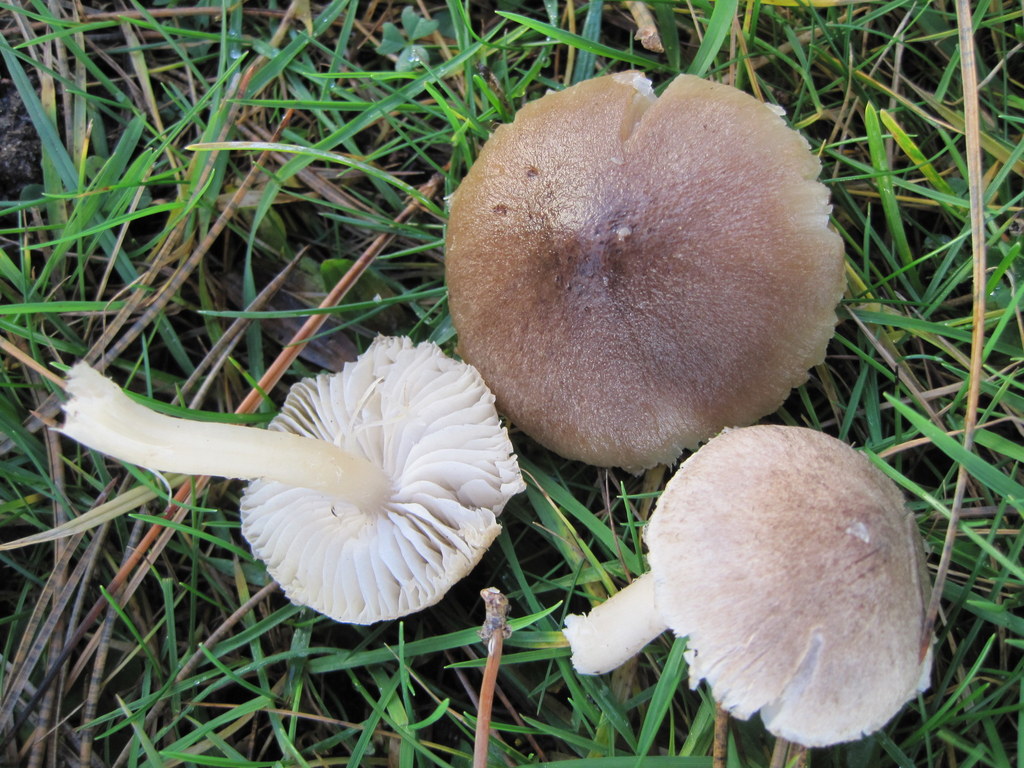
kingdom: Fungi
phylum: Basidiomycota
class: Agaricomycetes
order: Agaricales
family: Tricholomataceae
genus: Tricholoma
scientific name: Tricholoma terreum
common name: jordfarvet ridderhat
